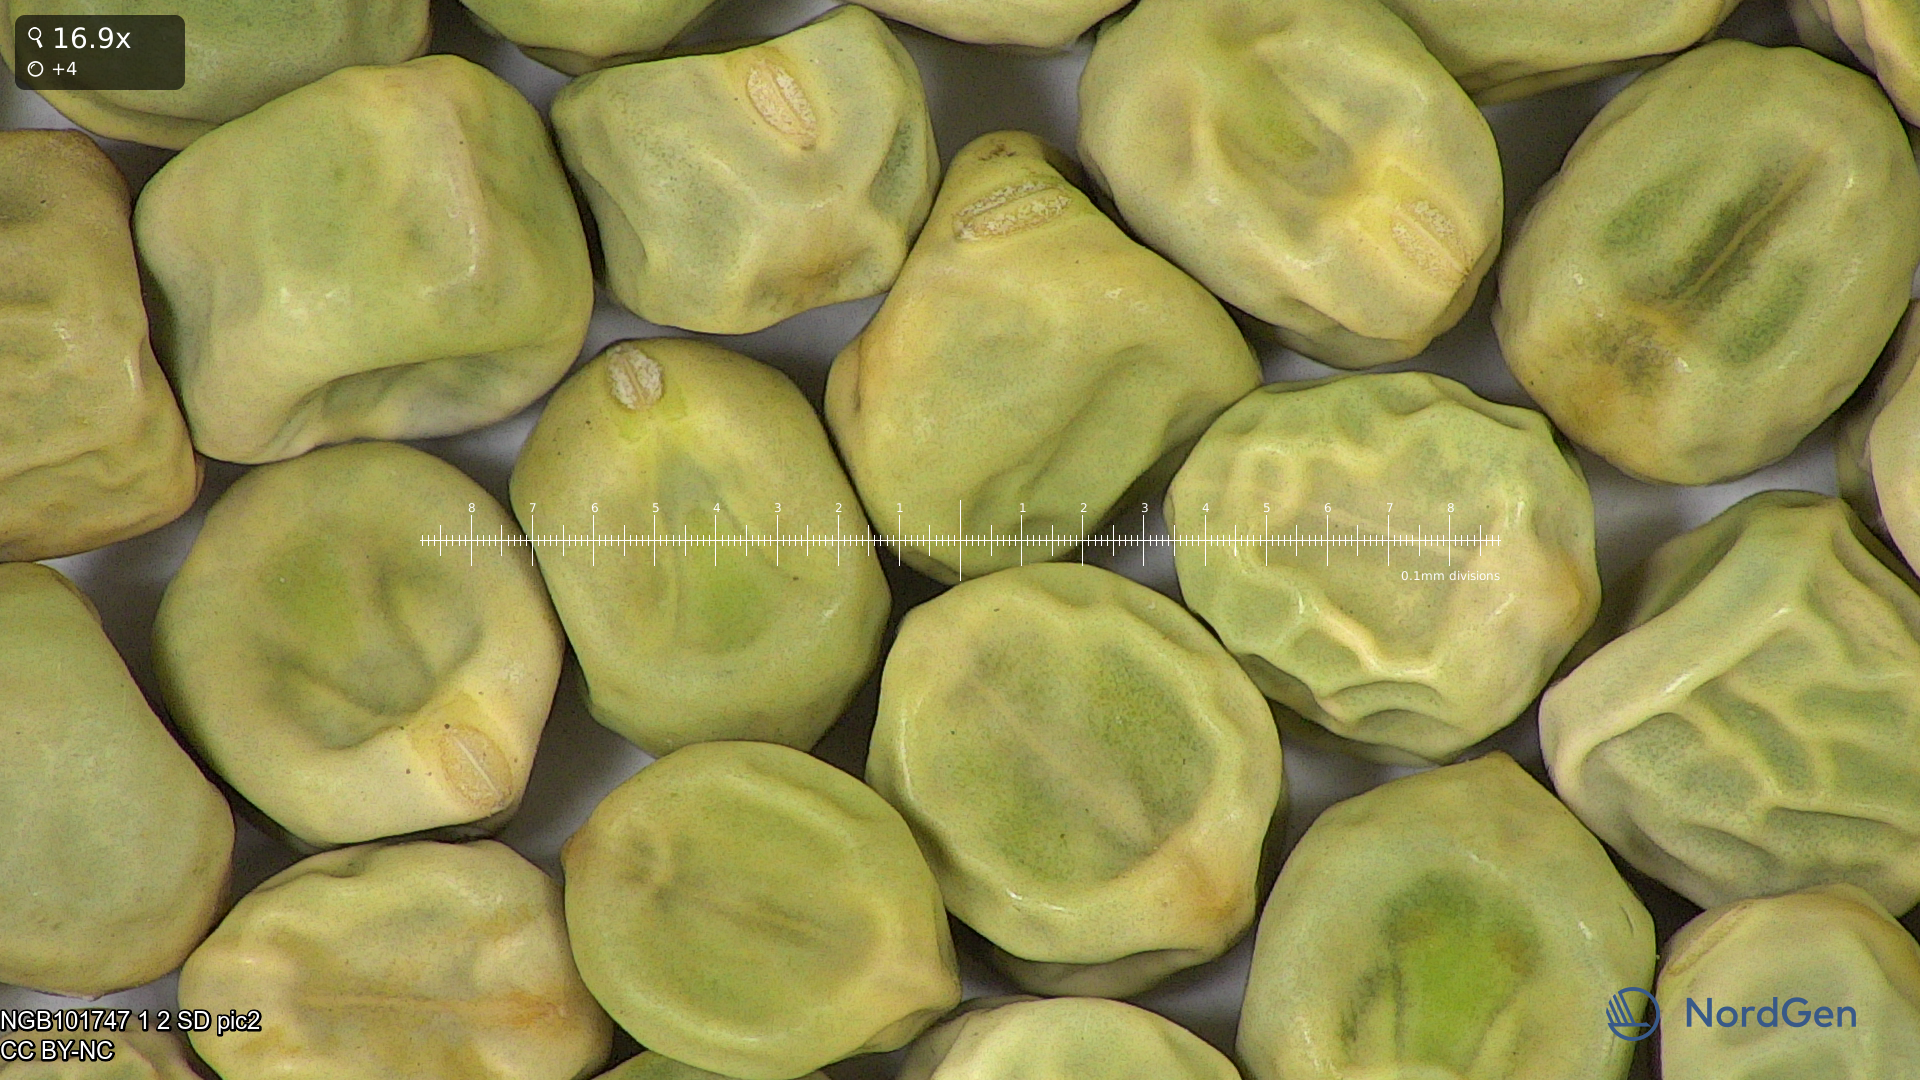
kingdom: Plantae
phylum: Tracheophyta
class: Magnoliopsida
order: Fabales
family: Fabaceae
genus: Lathyrus
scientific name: Lathyrus oleraceus
